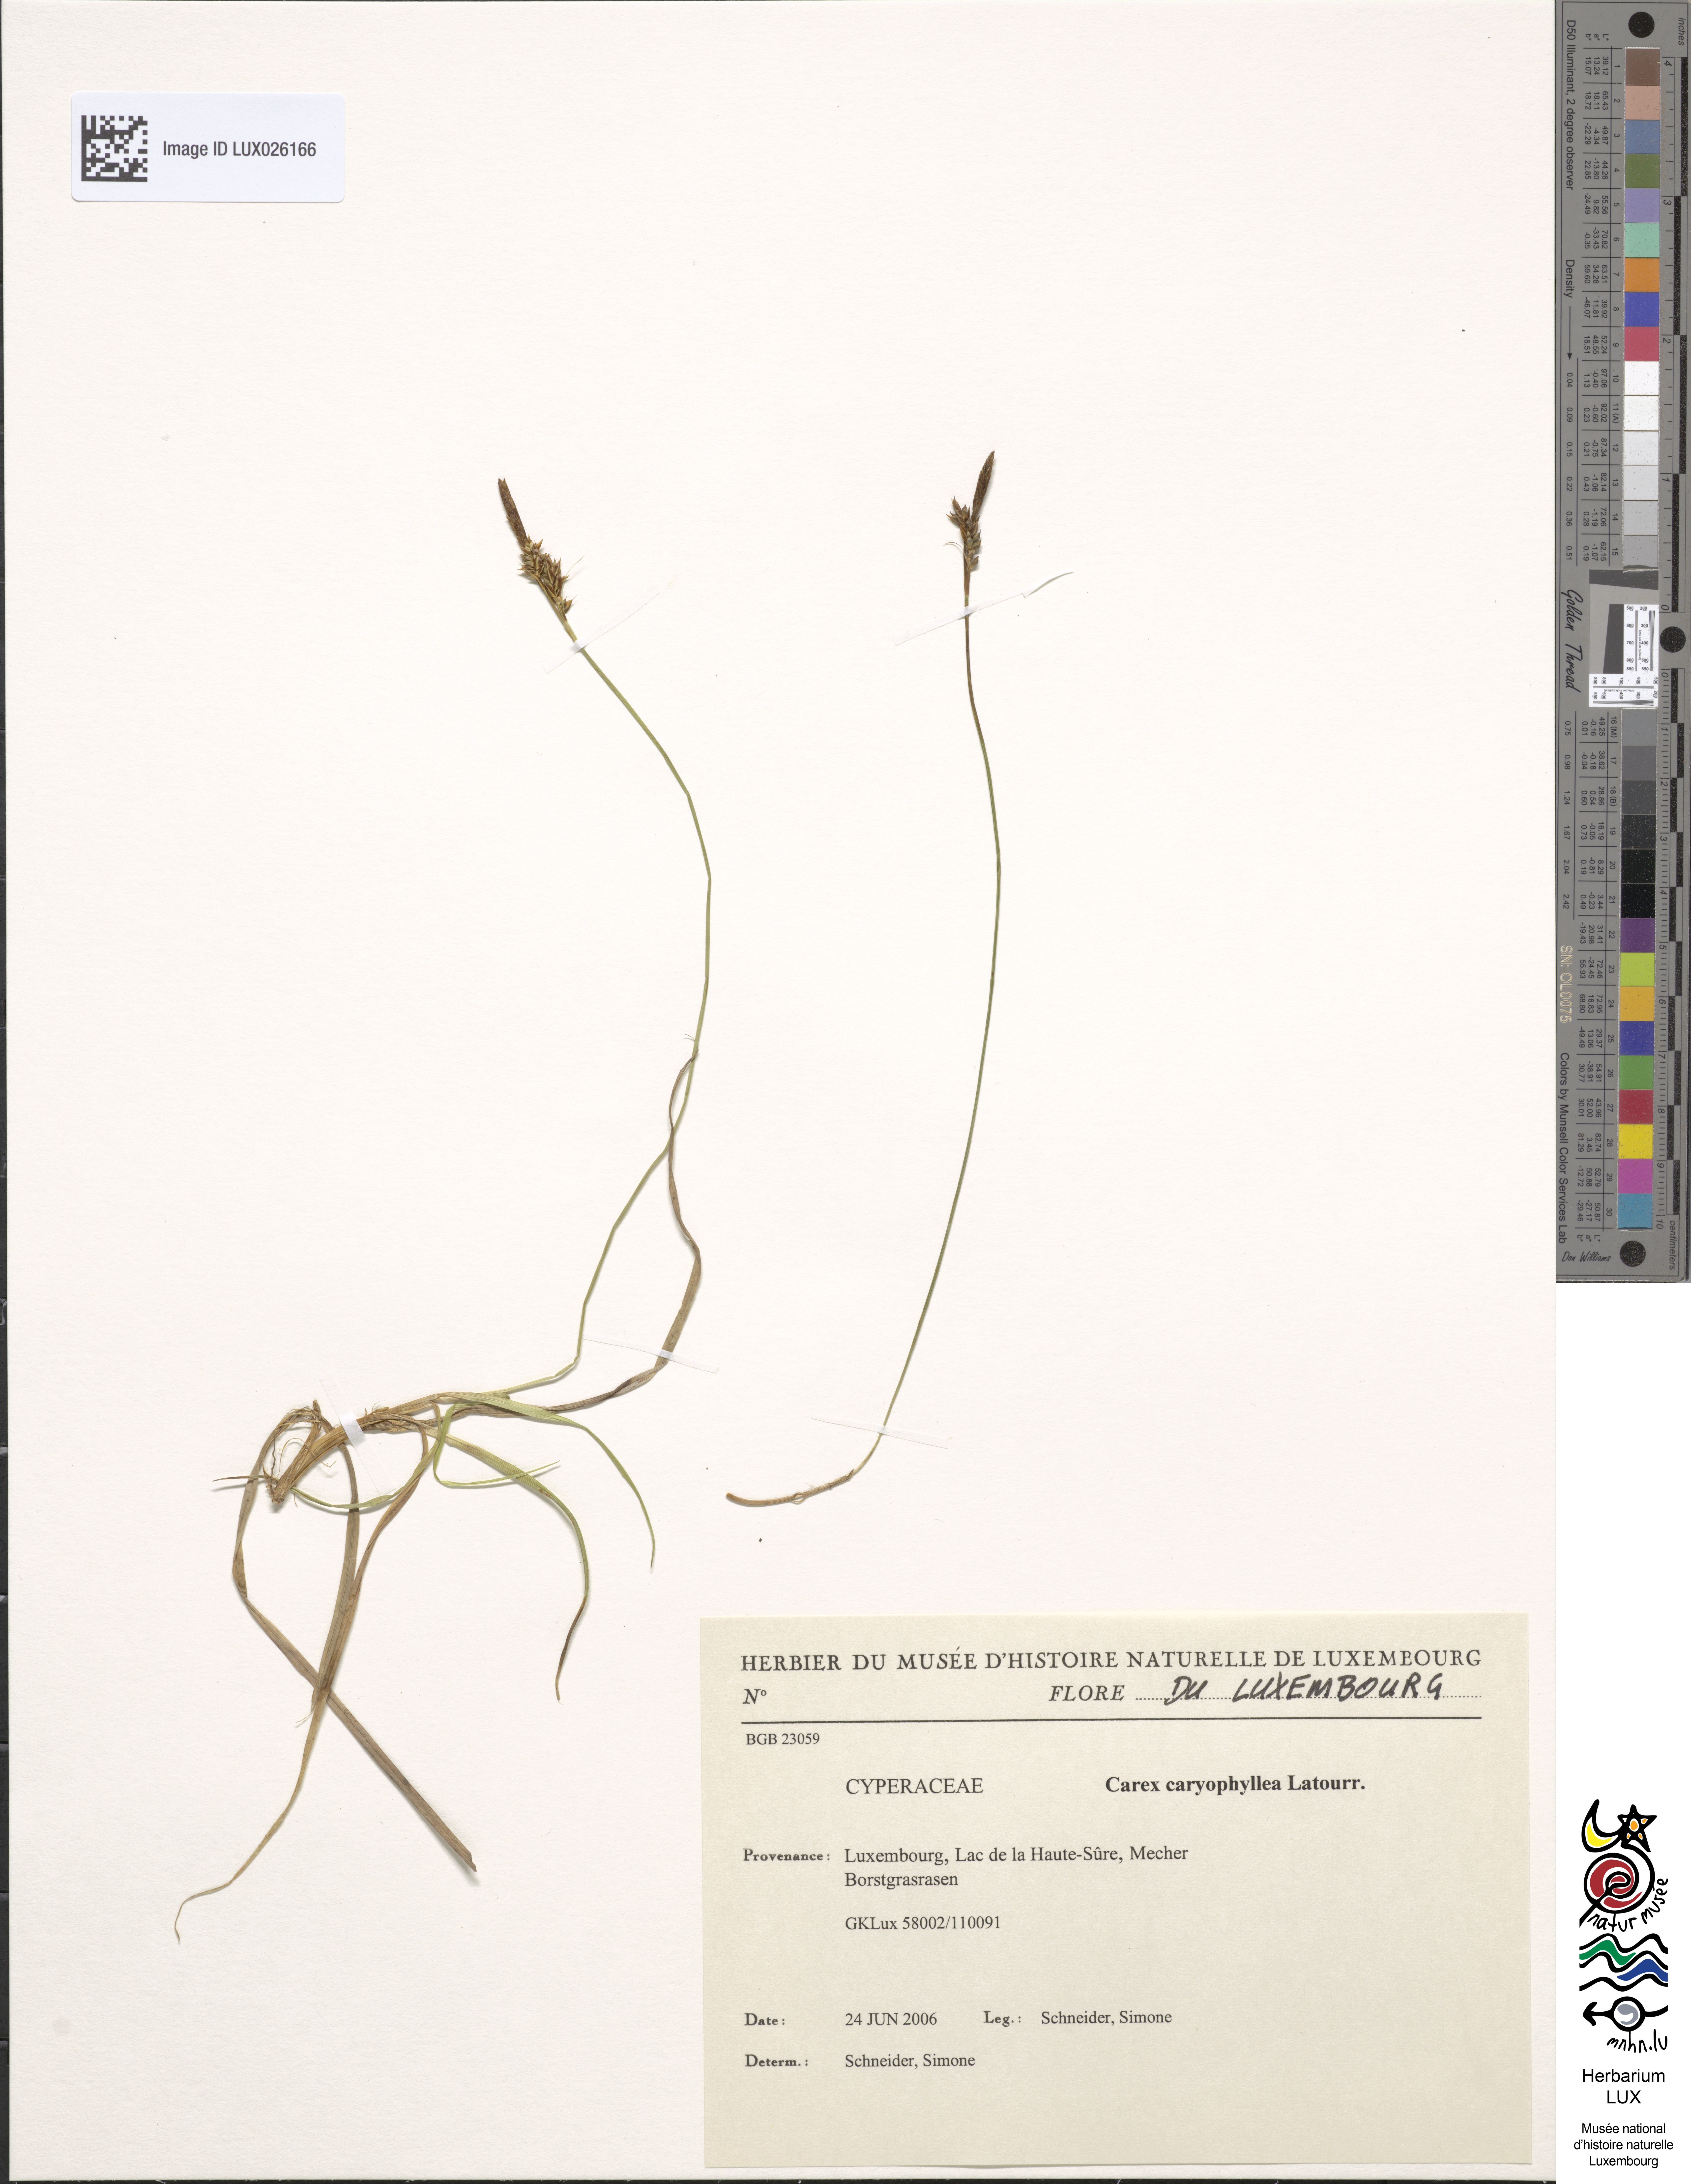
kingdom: Plantae
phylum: Tracheophyta
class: Liliopsida
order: Poales
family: Cyperaceae
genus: Carex
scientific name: Carex caryophyllea
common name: Spring sedge
